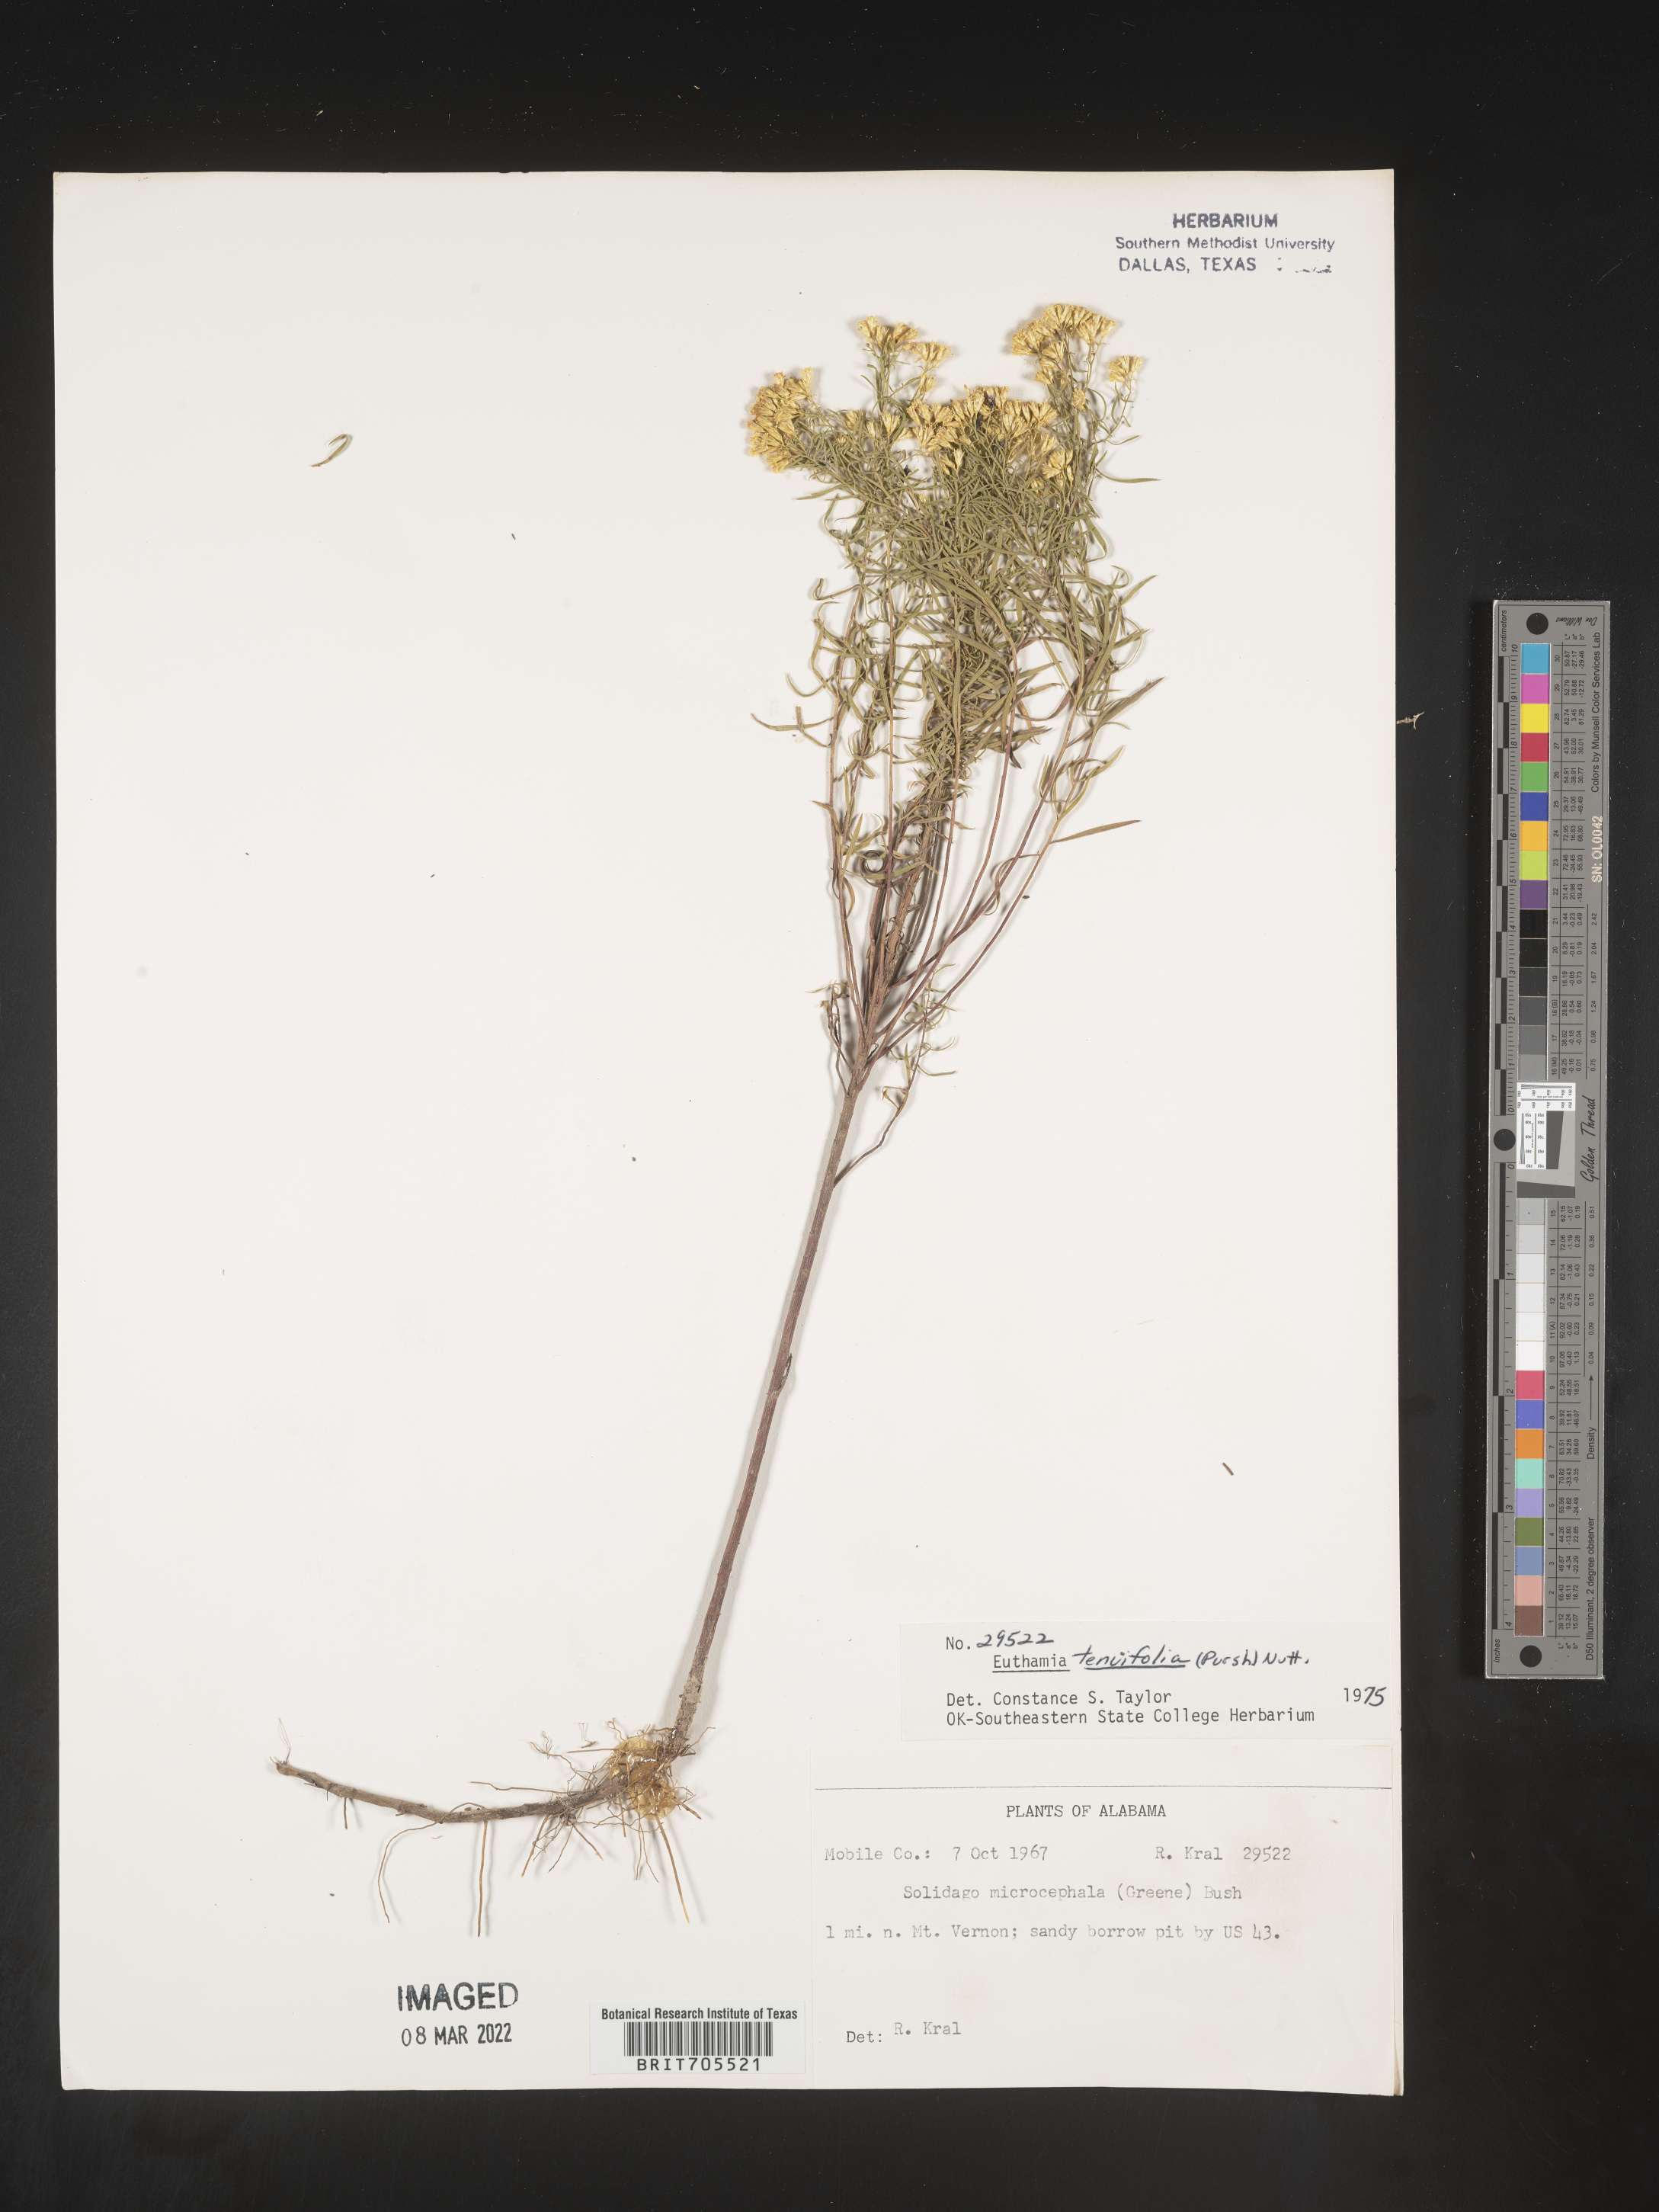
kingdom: Plantae
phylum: Tracheophyta
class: Magnoliopsida
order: Asterales
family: Asteraceae
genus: Euthamia
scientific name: Euthamia caroliniana
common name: Coastal plain goldentop
